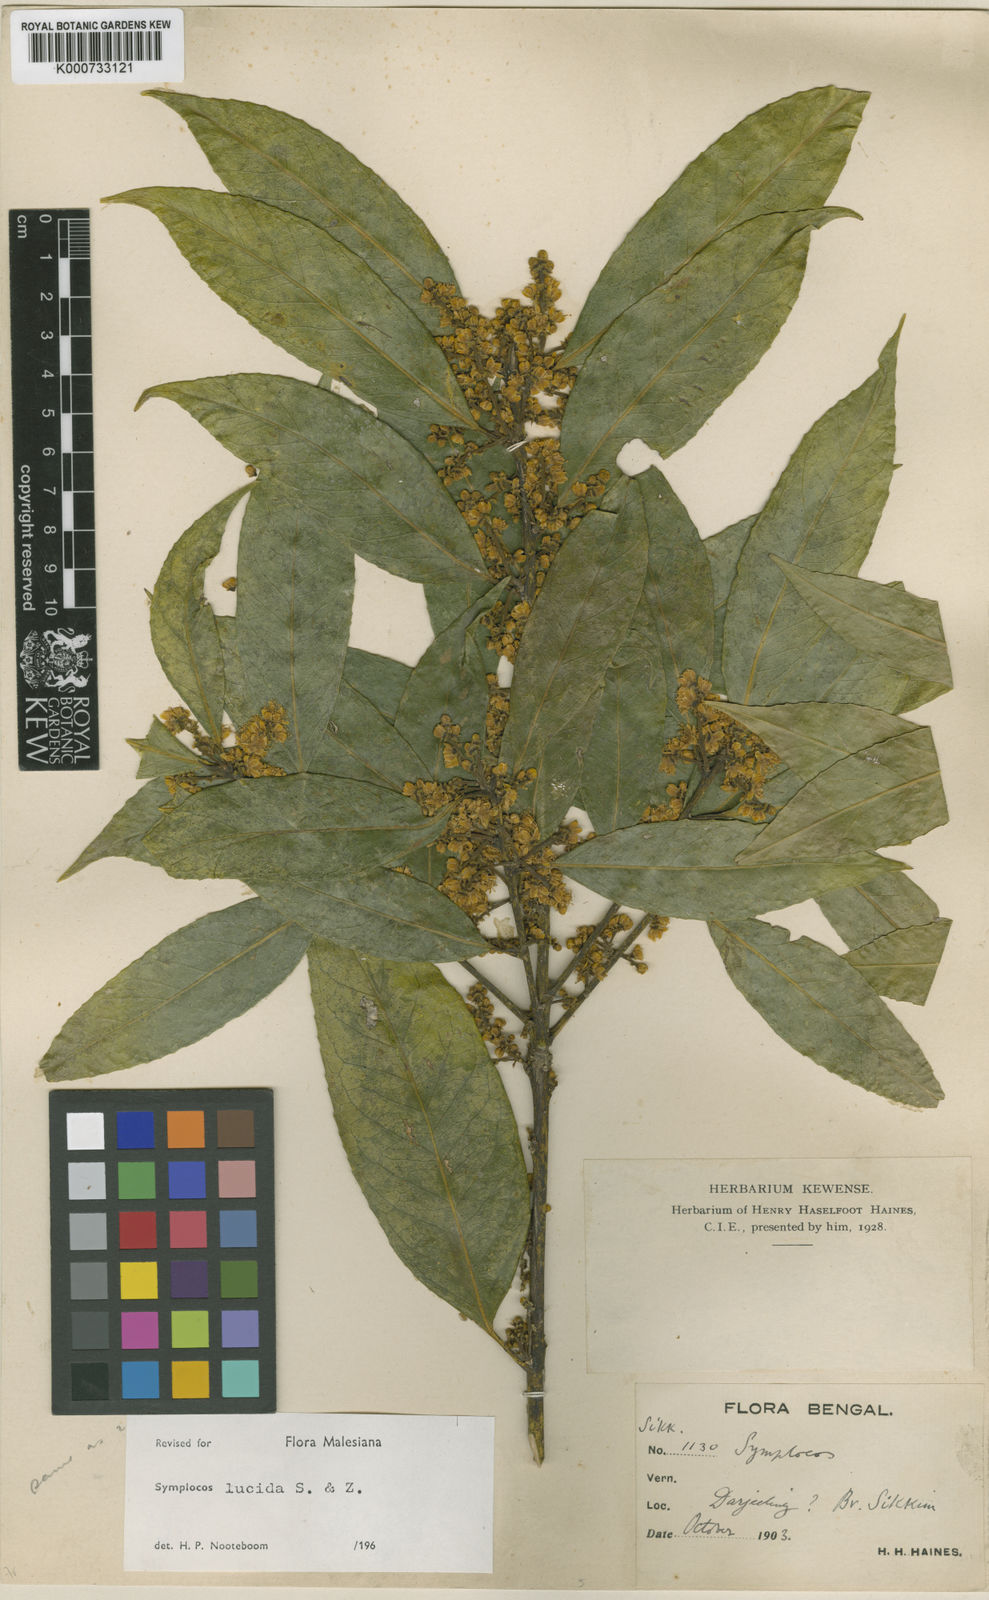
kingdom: Plantae
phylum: Tracheophyta
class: Magnoliopsida
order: Ericales
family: Symplocaceae
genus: Symplocos
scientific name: Symplocos
